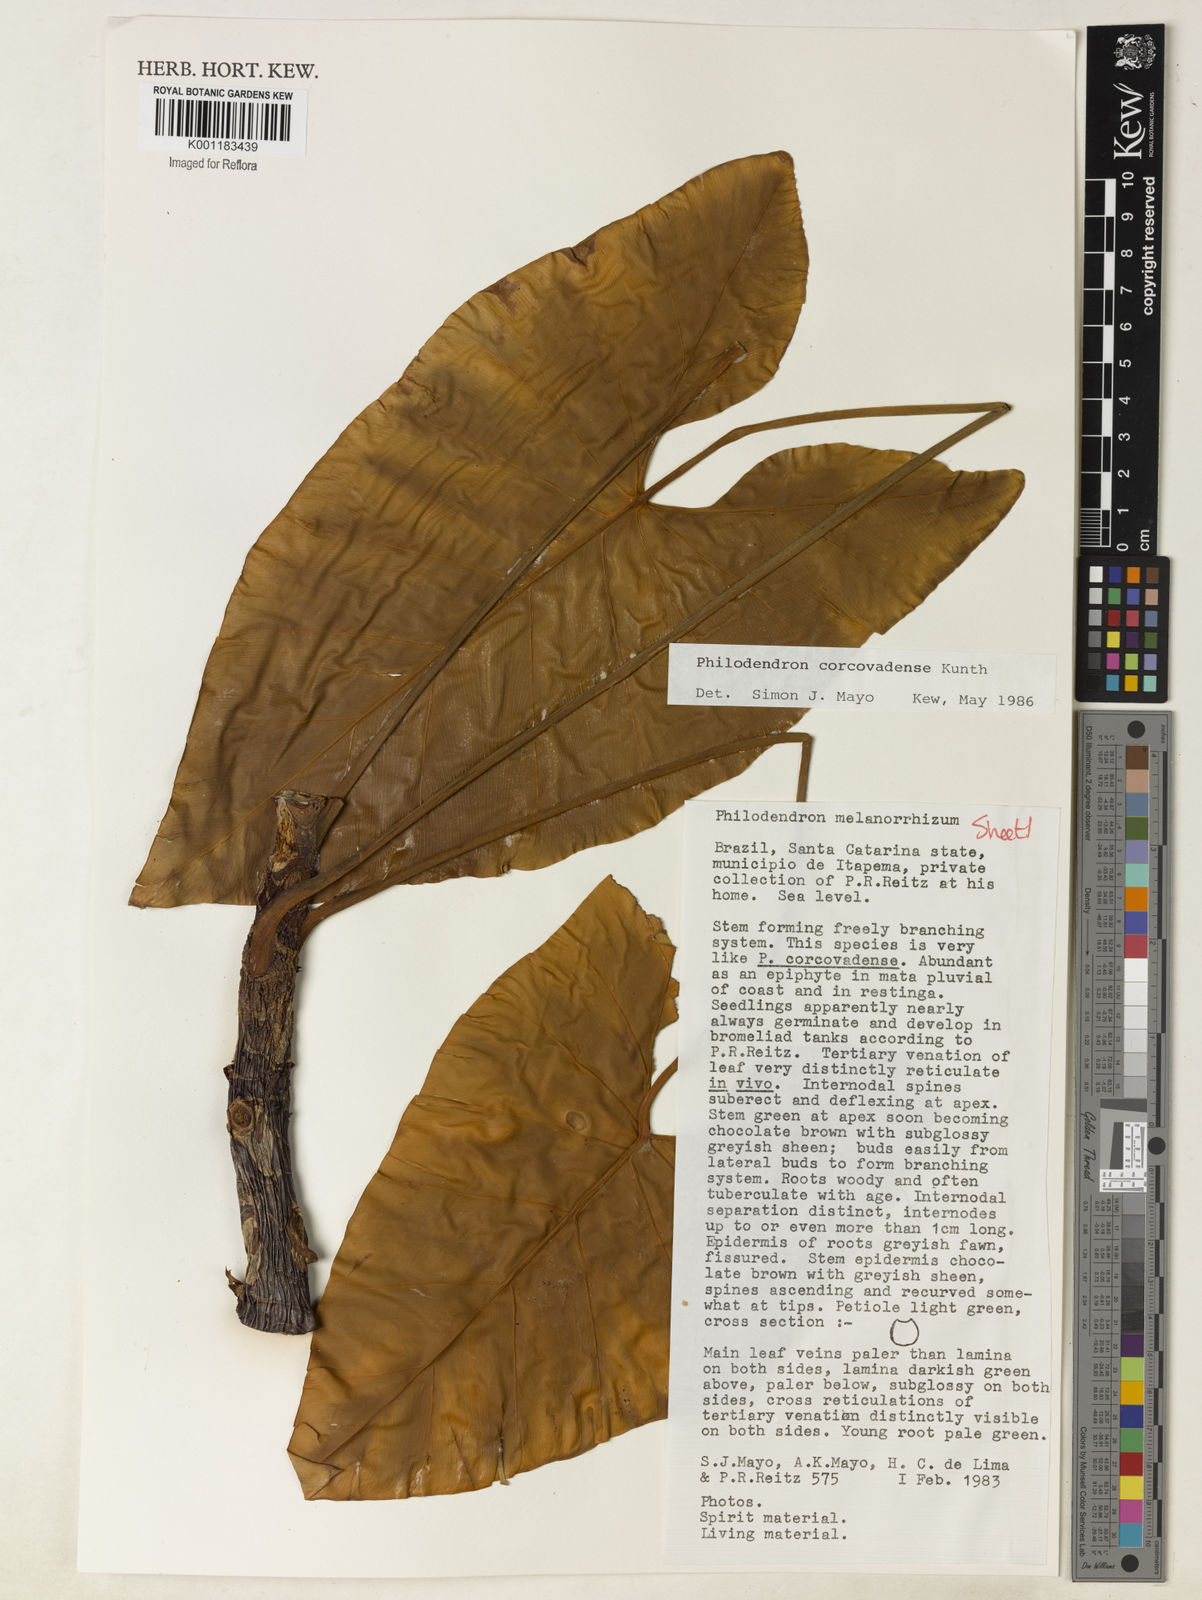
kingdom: Plantae
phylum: Tracheophyta
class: Liliopsida
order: Alismatales
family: Araceae
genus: Thaumatophyllum
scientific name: Thaumatophyllum corcovadense
